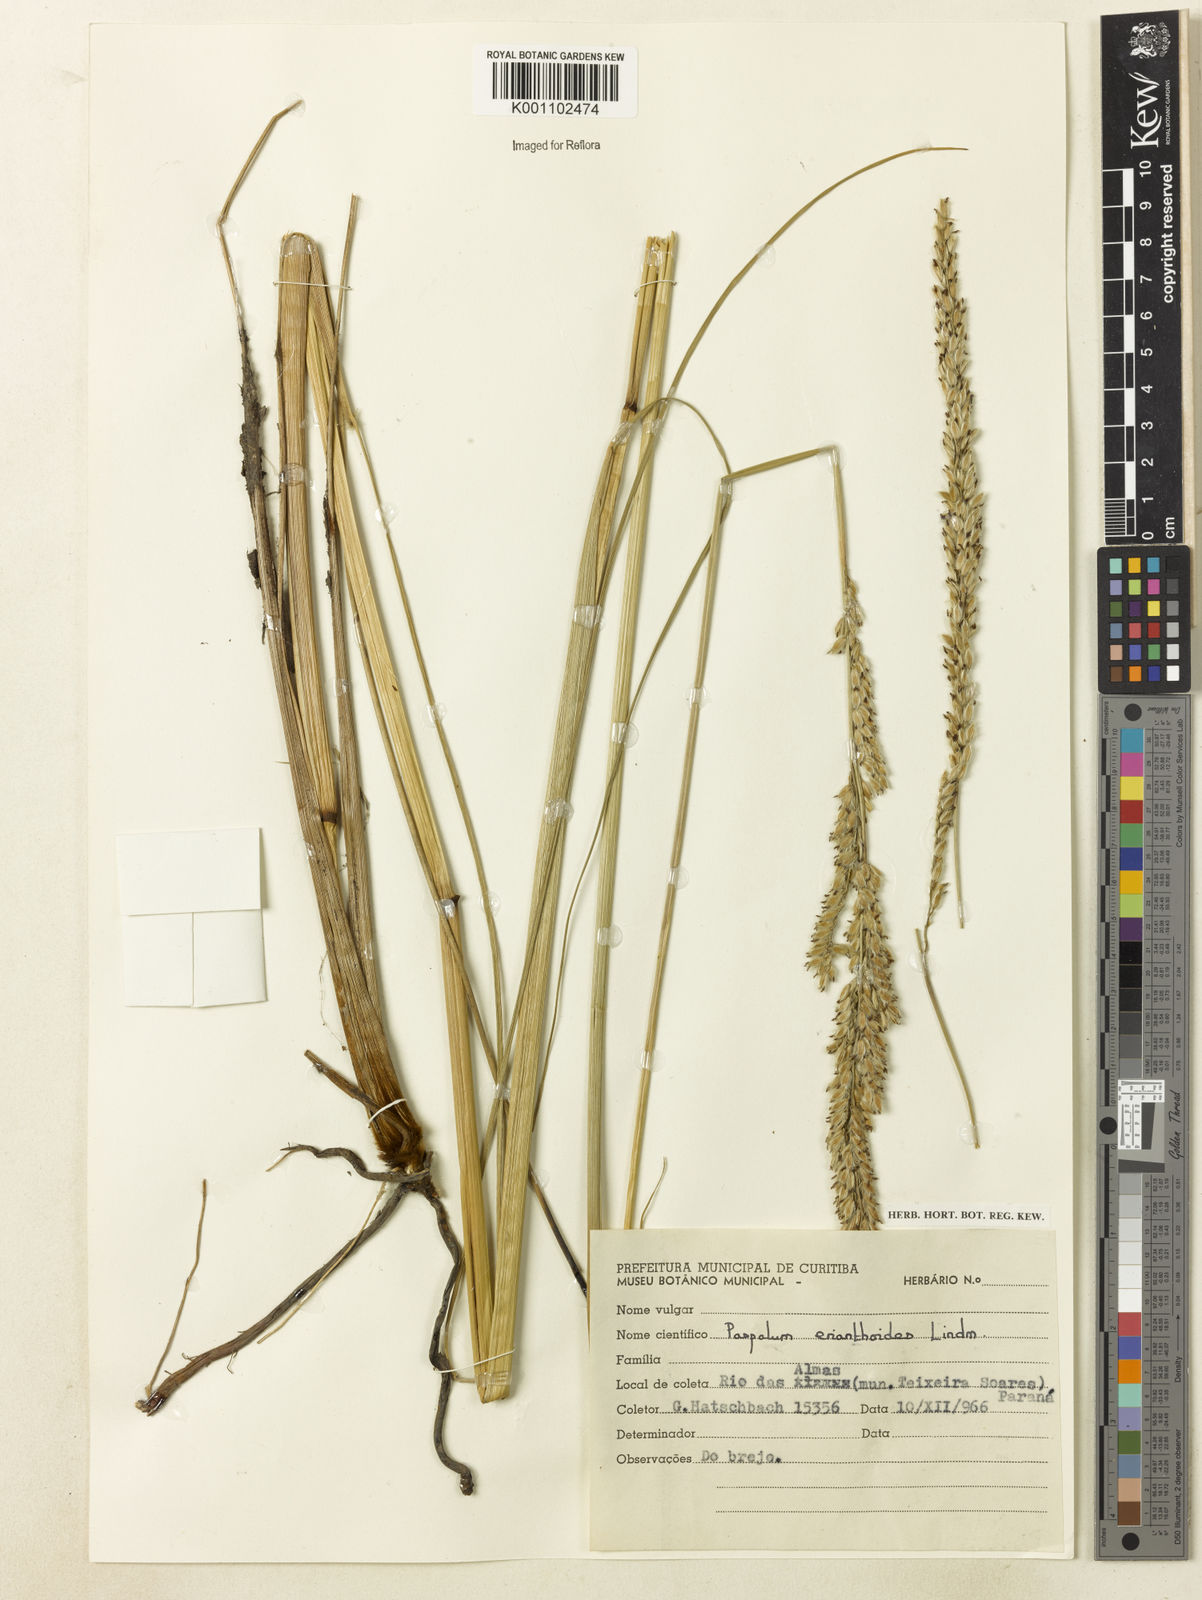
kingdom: Plantae
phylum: Tracheophyta
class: Liliopsida
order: Poales
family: Poaceae
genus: Paspalum
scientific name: Paspalum erianthoides
